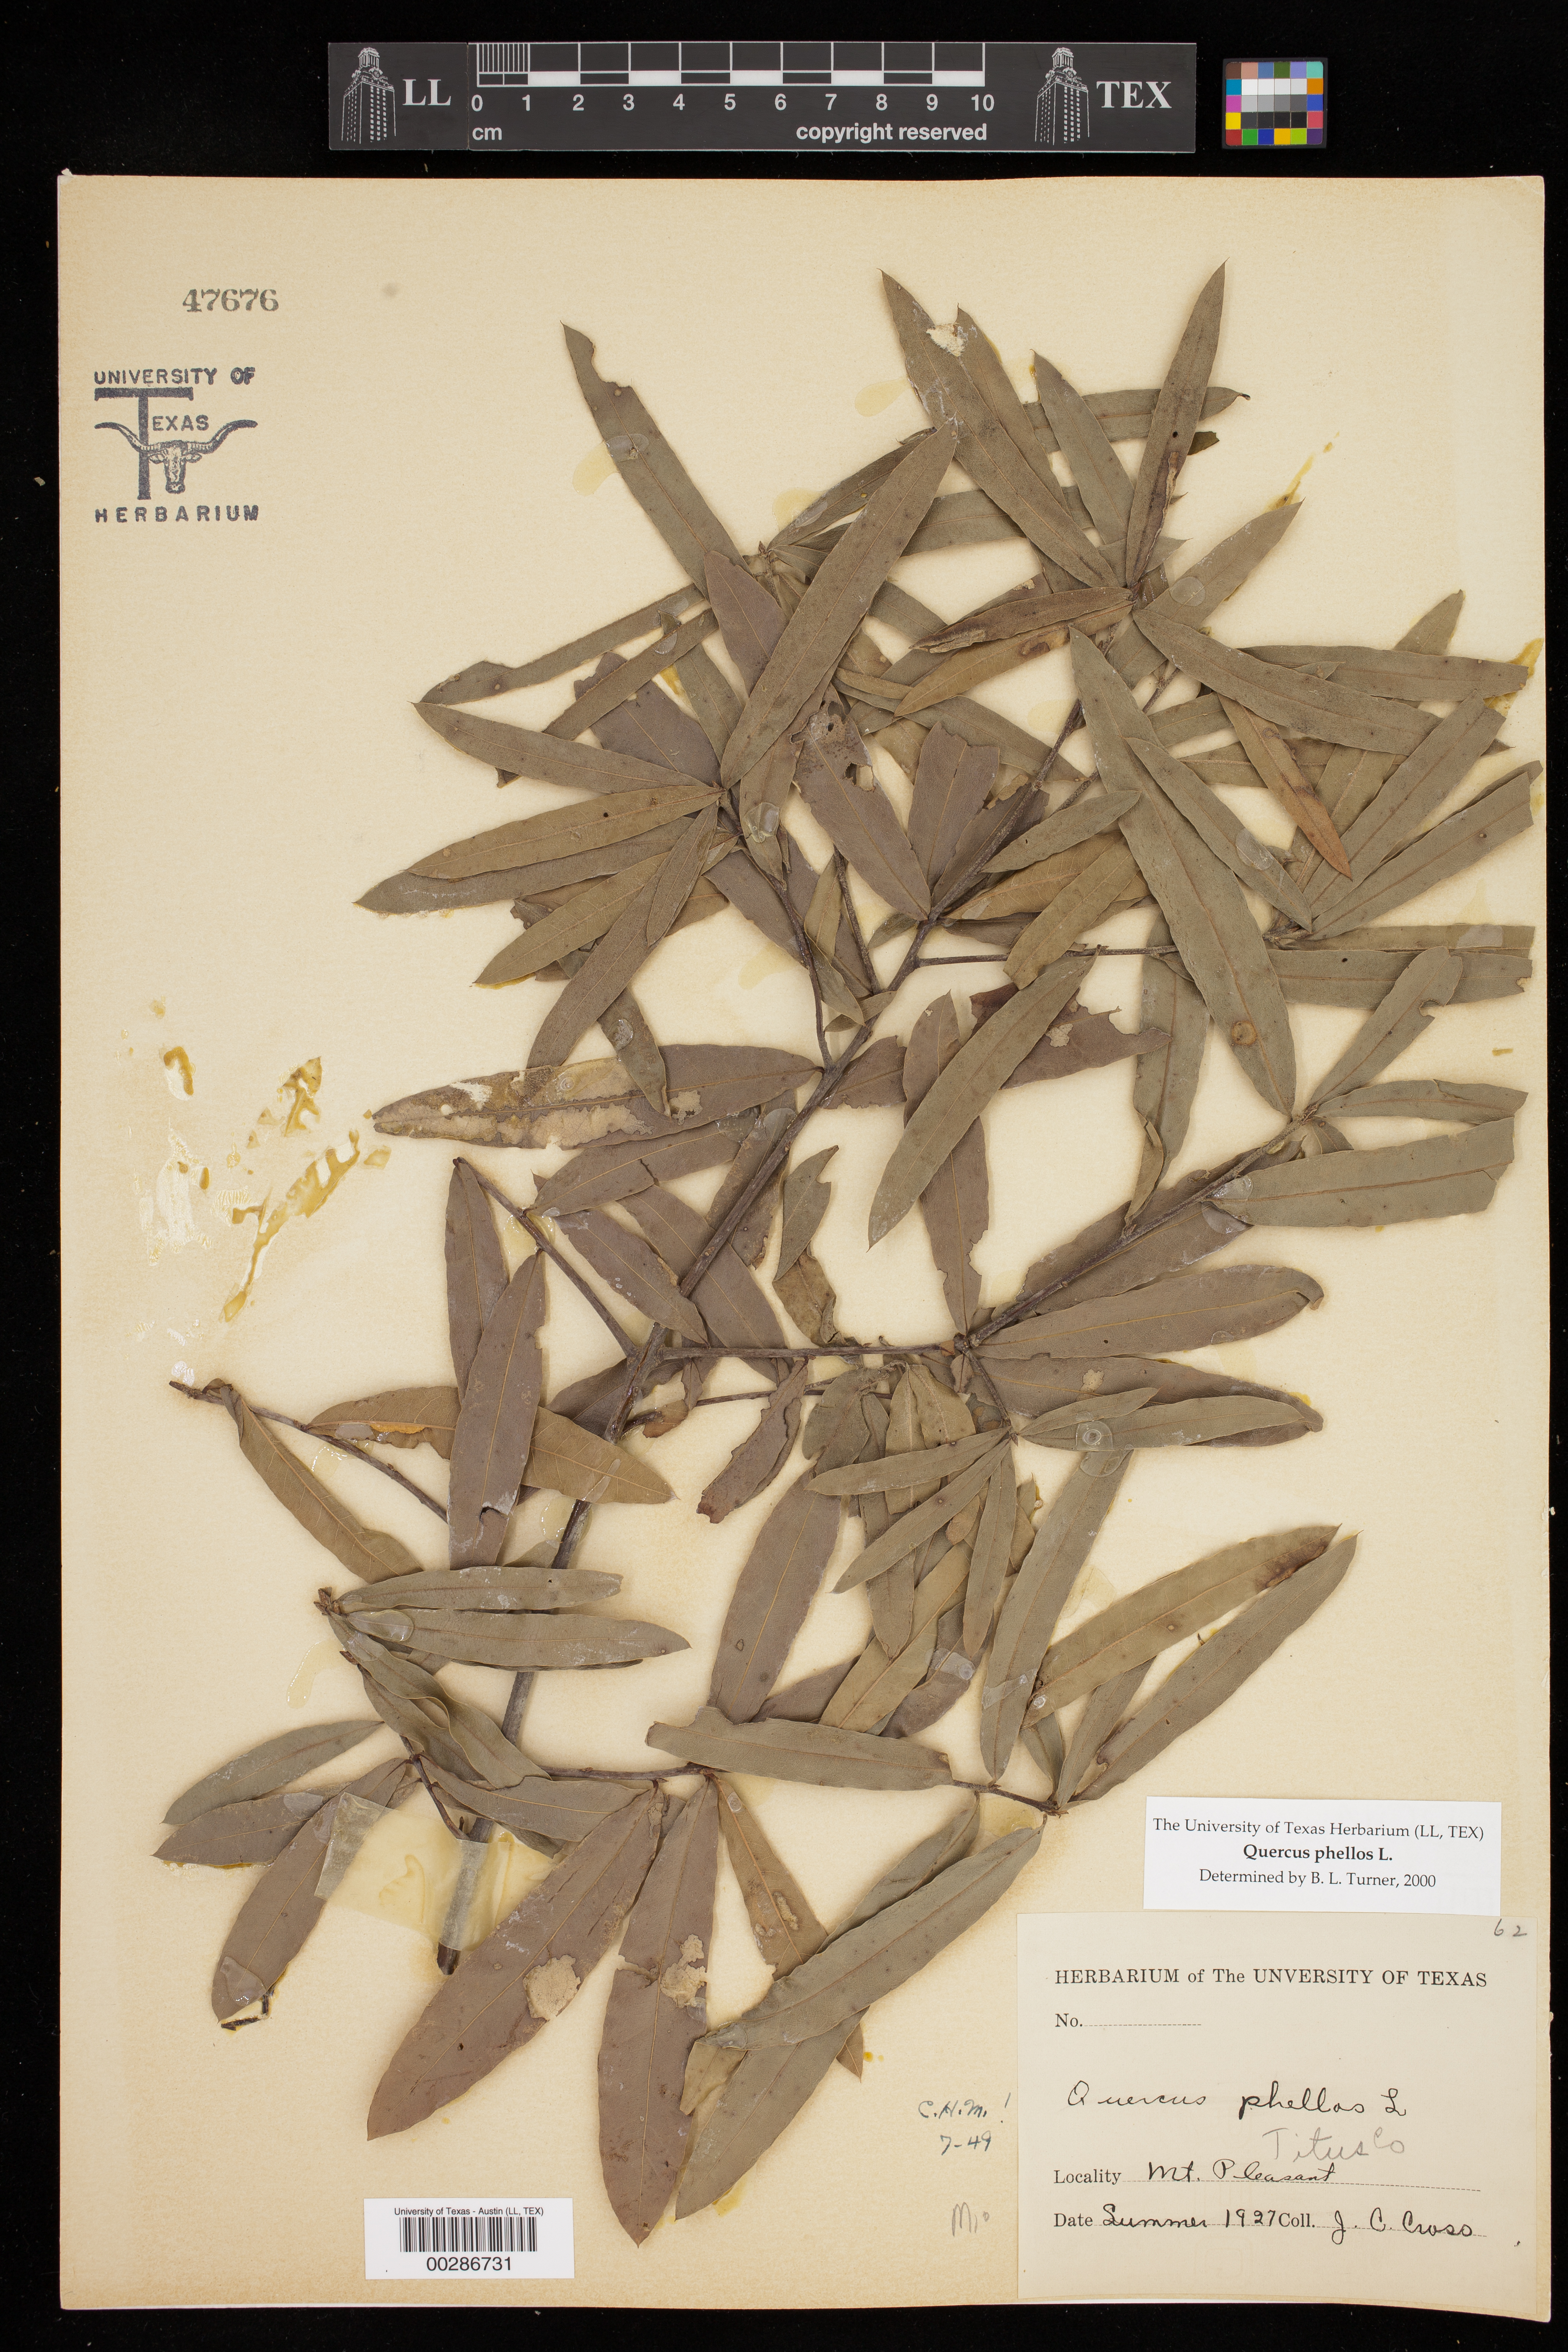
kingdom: Plantae
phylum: Tracheophyta
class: Magnoliopsida
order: Fagales
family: Fagaceae
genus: Quercus
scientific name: Quercus phellos
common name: Willow oak
